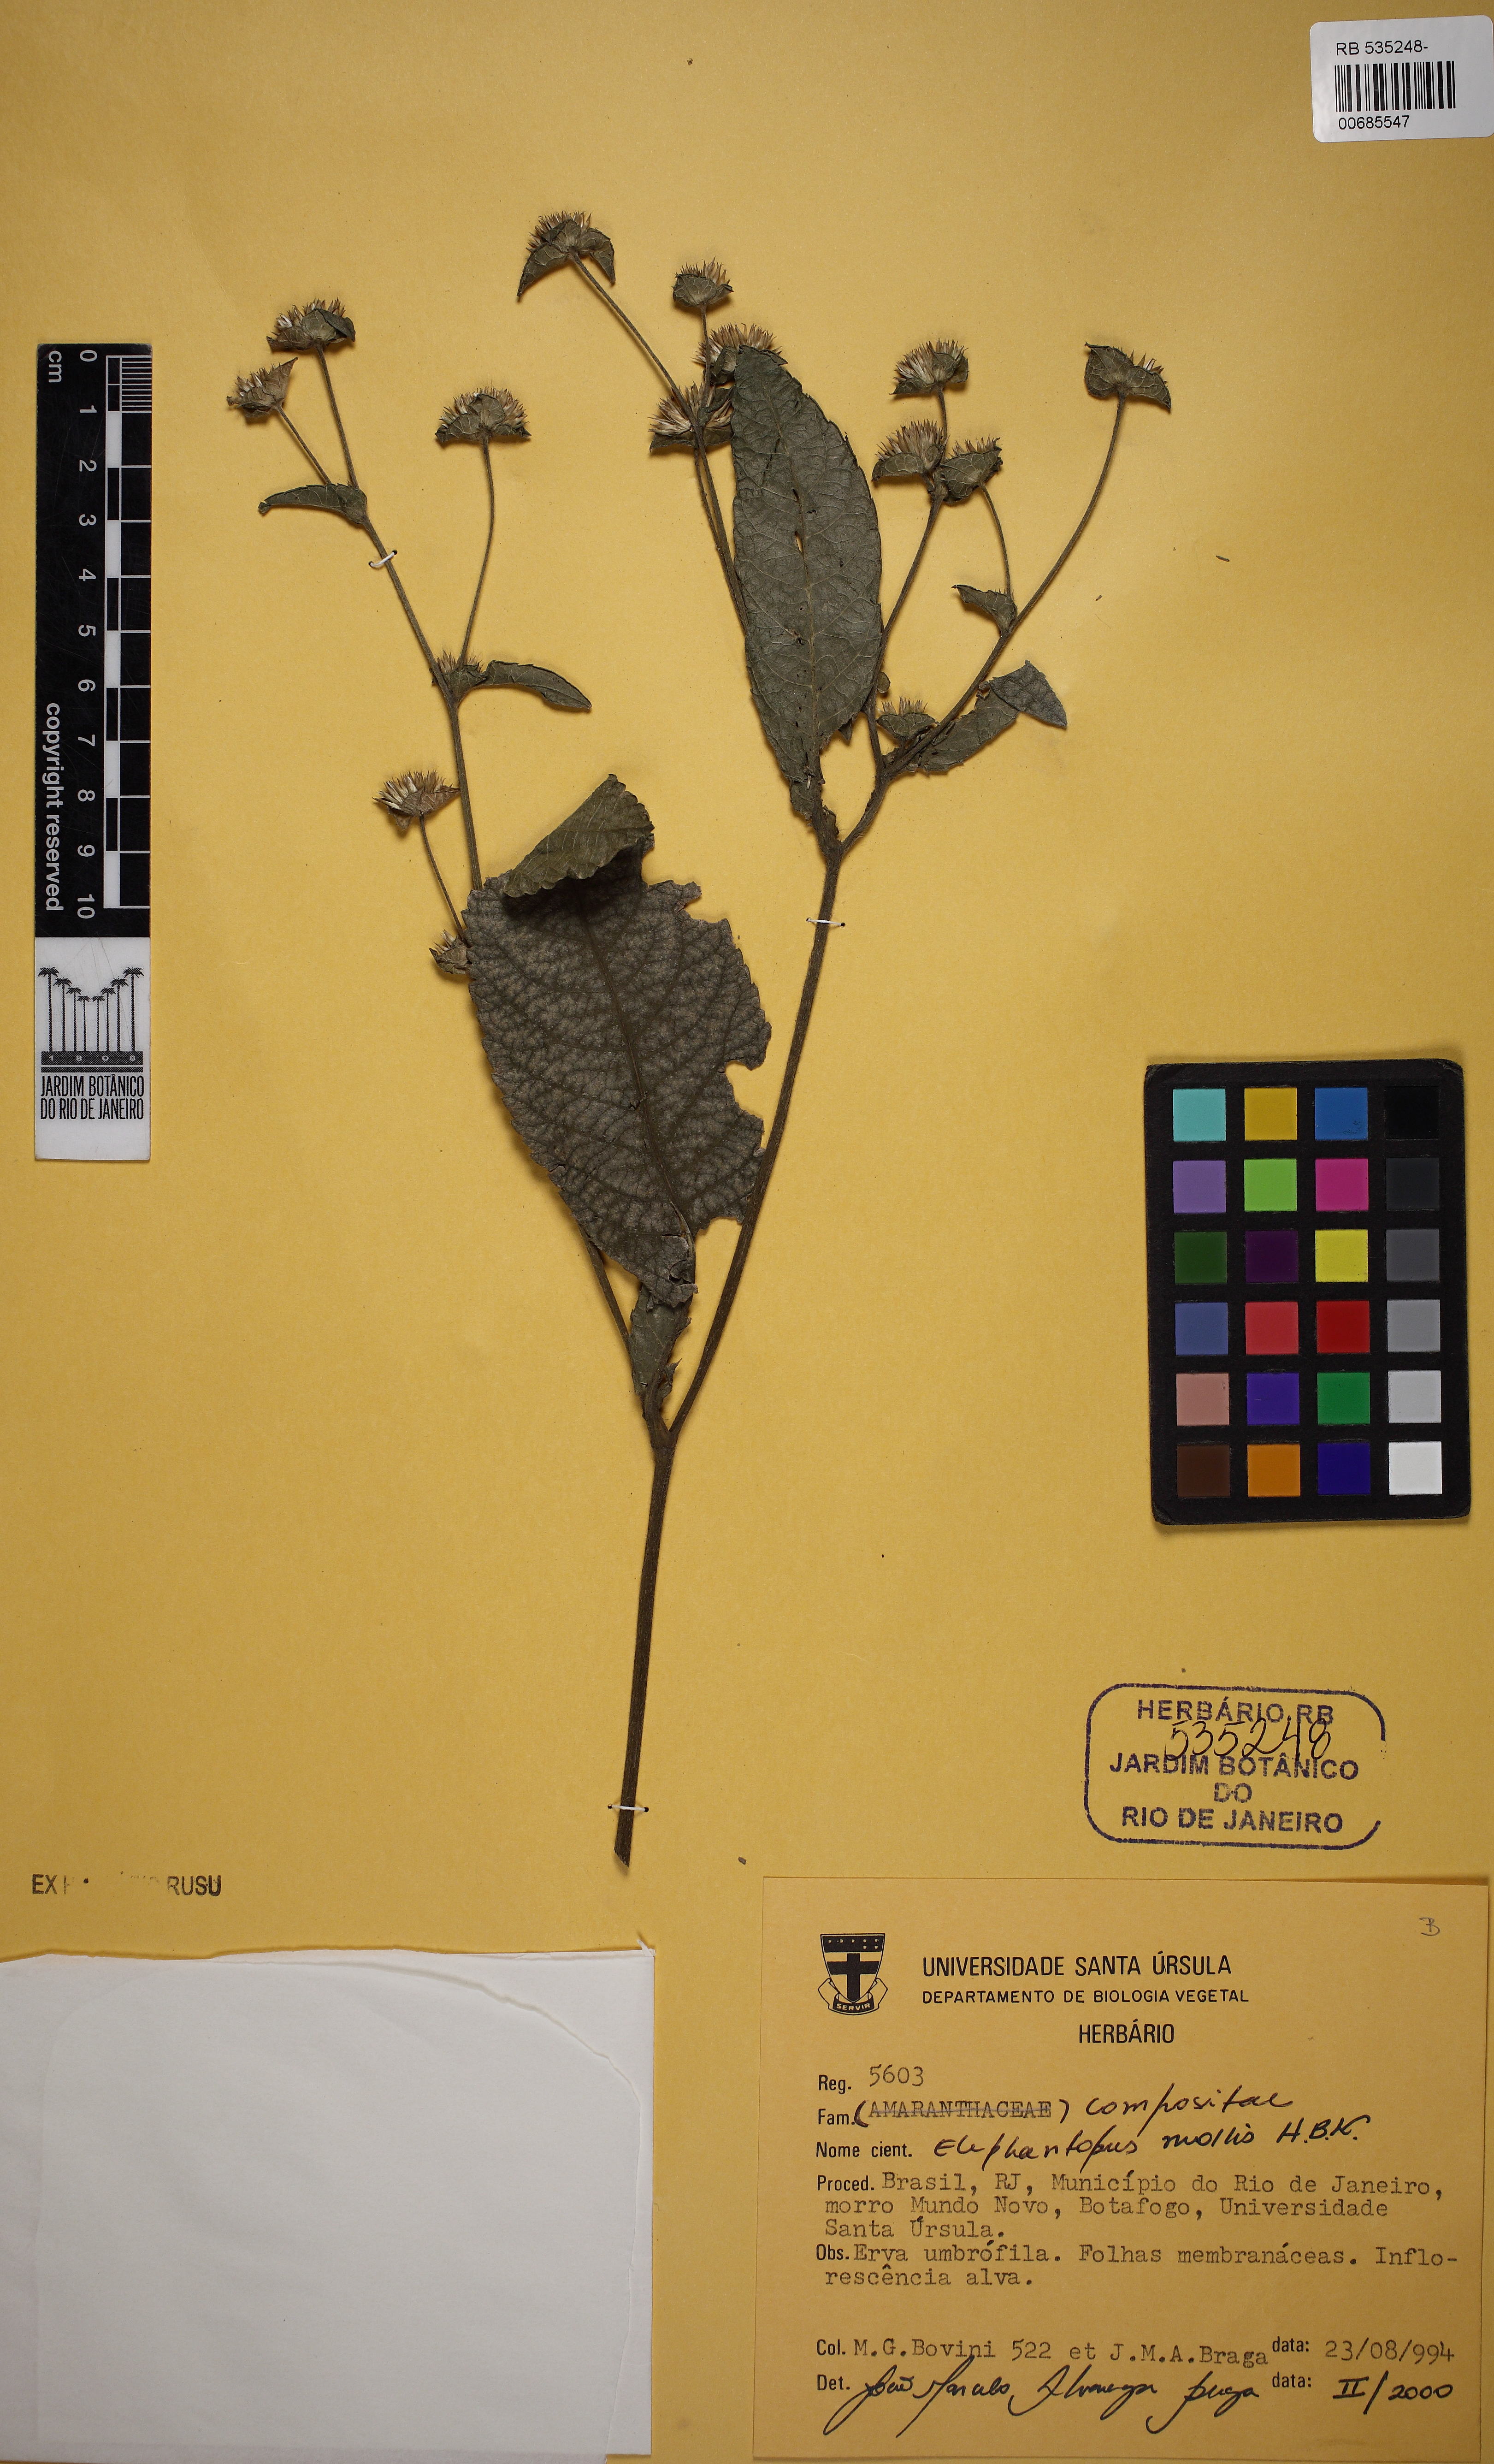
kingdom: Plantae
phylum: Tracheophyta
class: Magnoliopsida
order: Asterales
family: Asteraceae
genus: Elephantopus
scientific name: Elephantopus mollis
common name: Soft elephantsfoot
